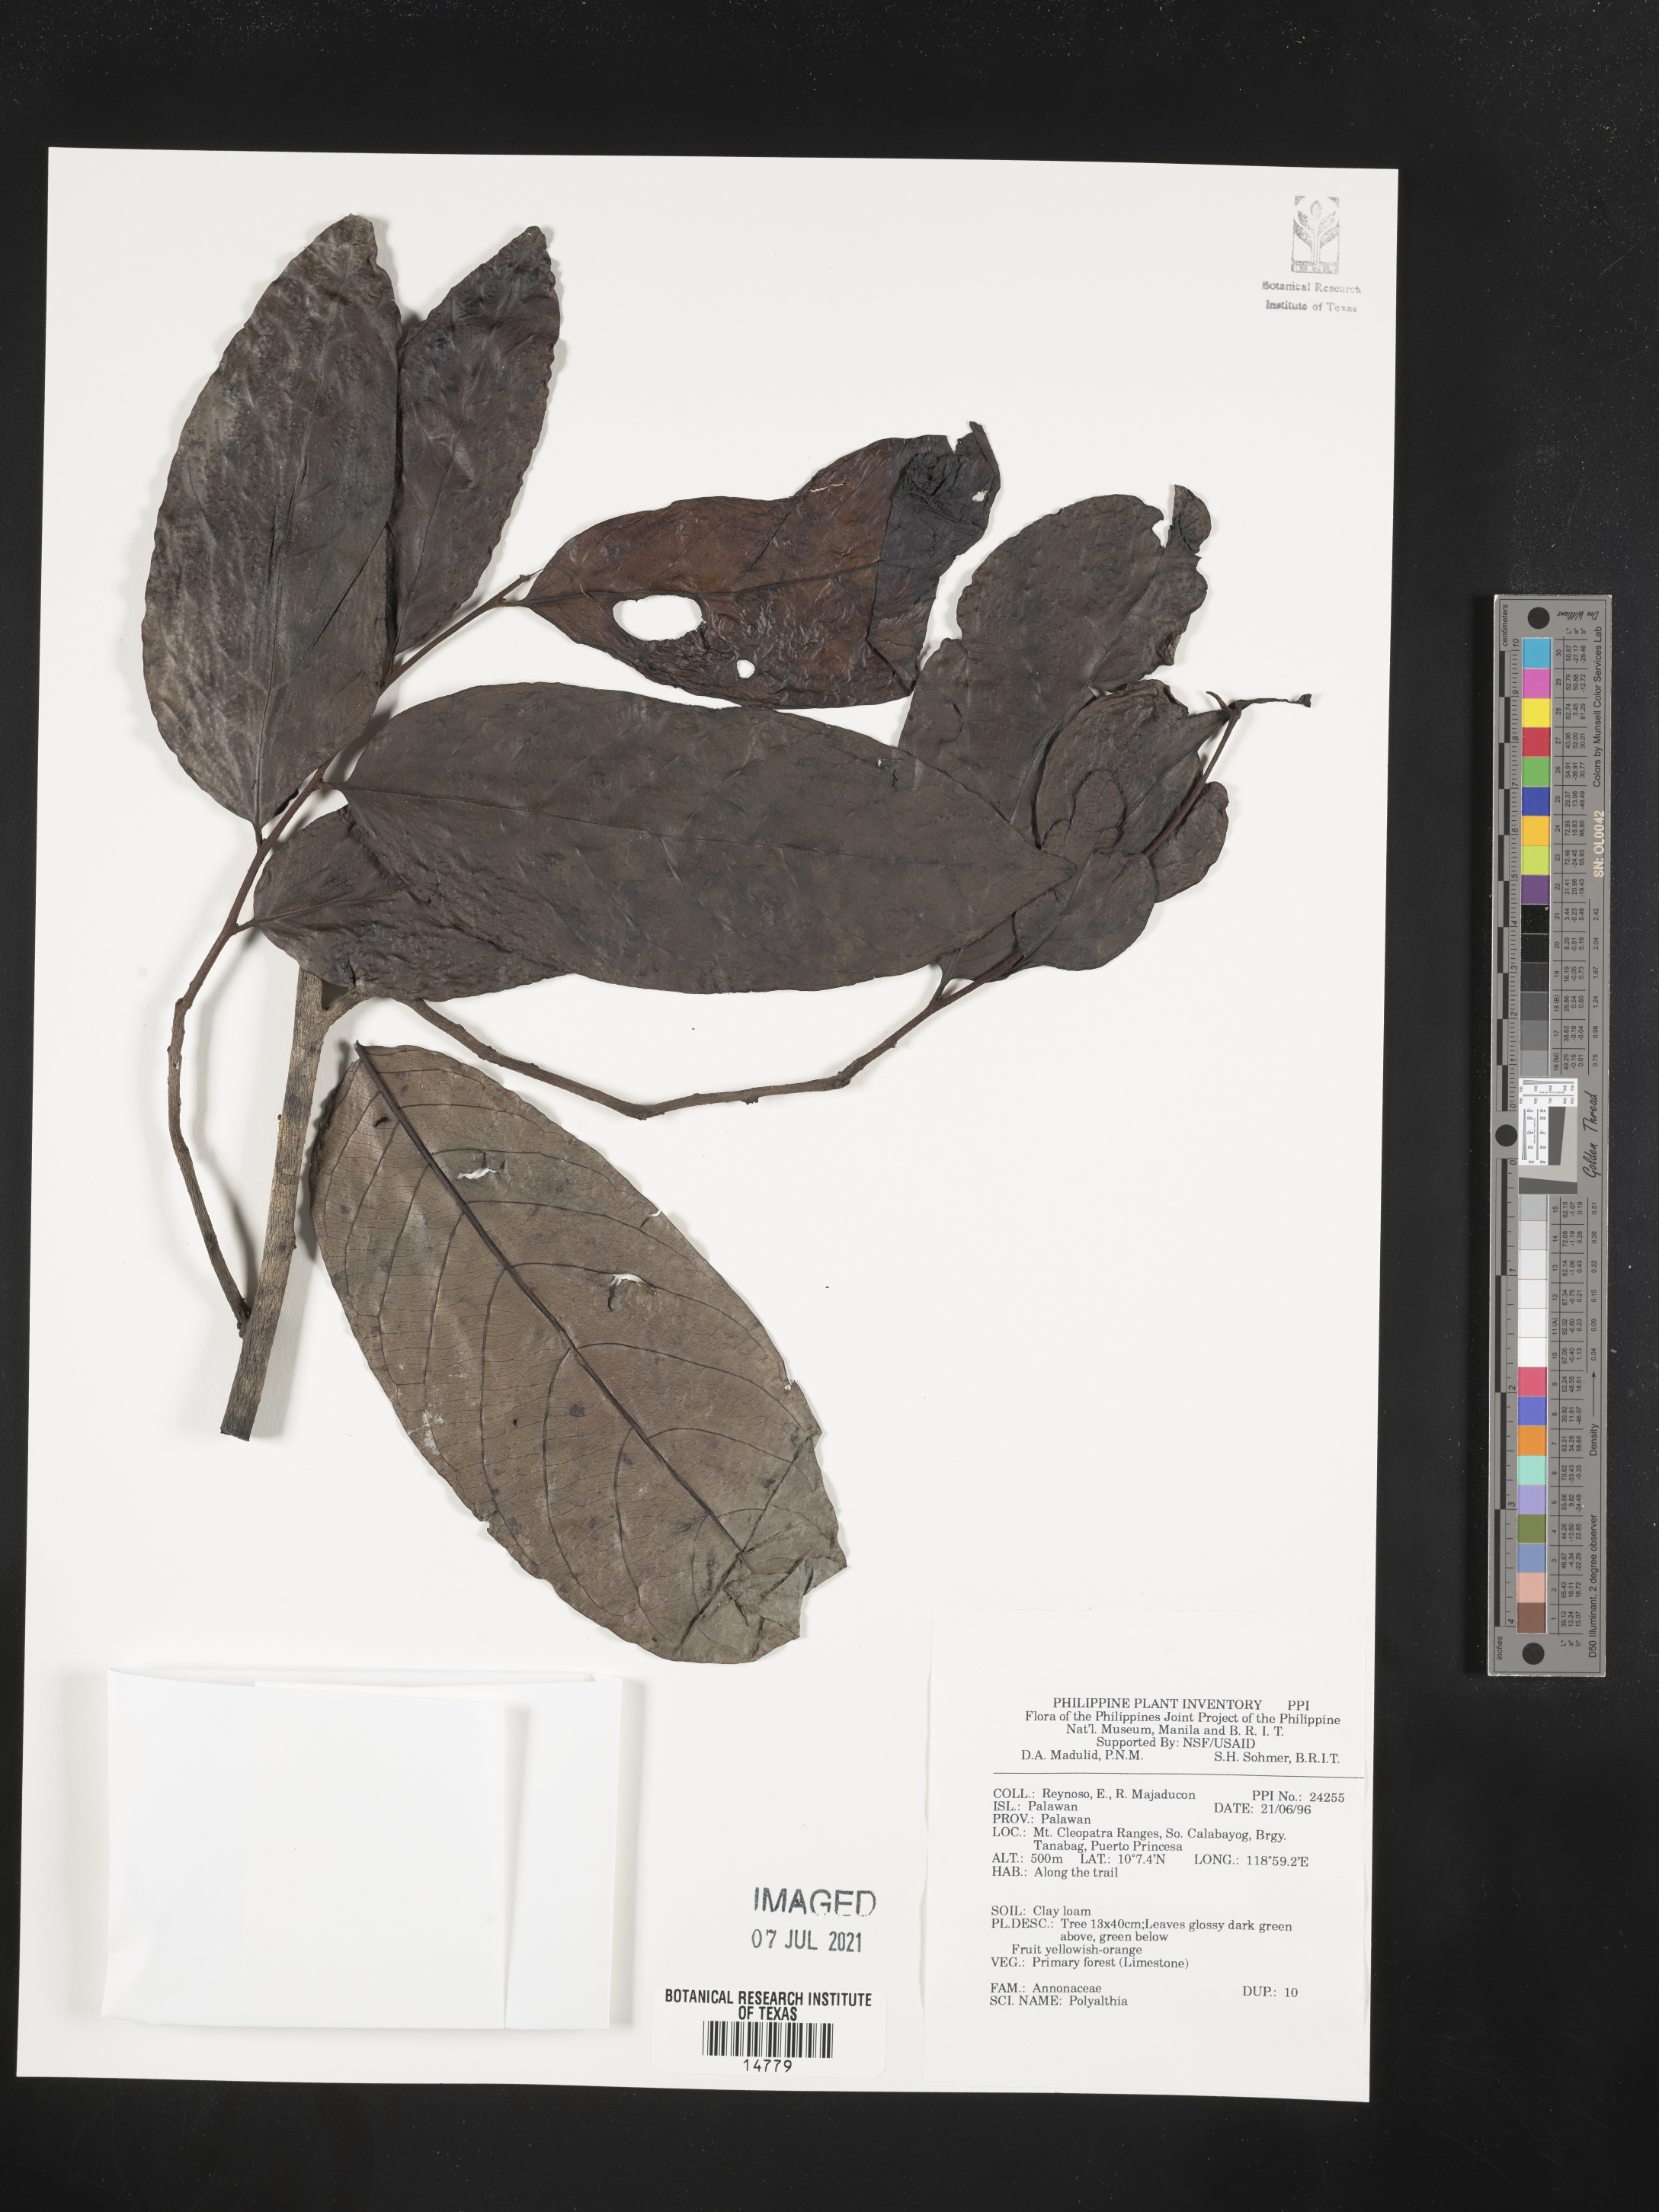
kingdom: Plantae
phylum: Tracheophyta
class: Magnoliopsida
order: Magnoliales
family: Annonaceae
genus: Polyalthia
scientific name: Polyalthia
